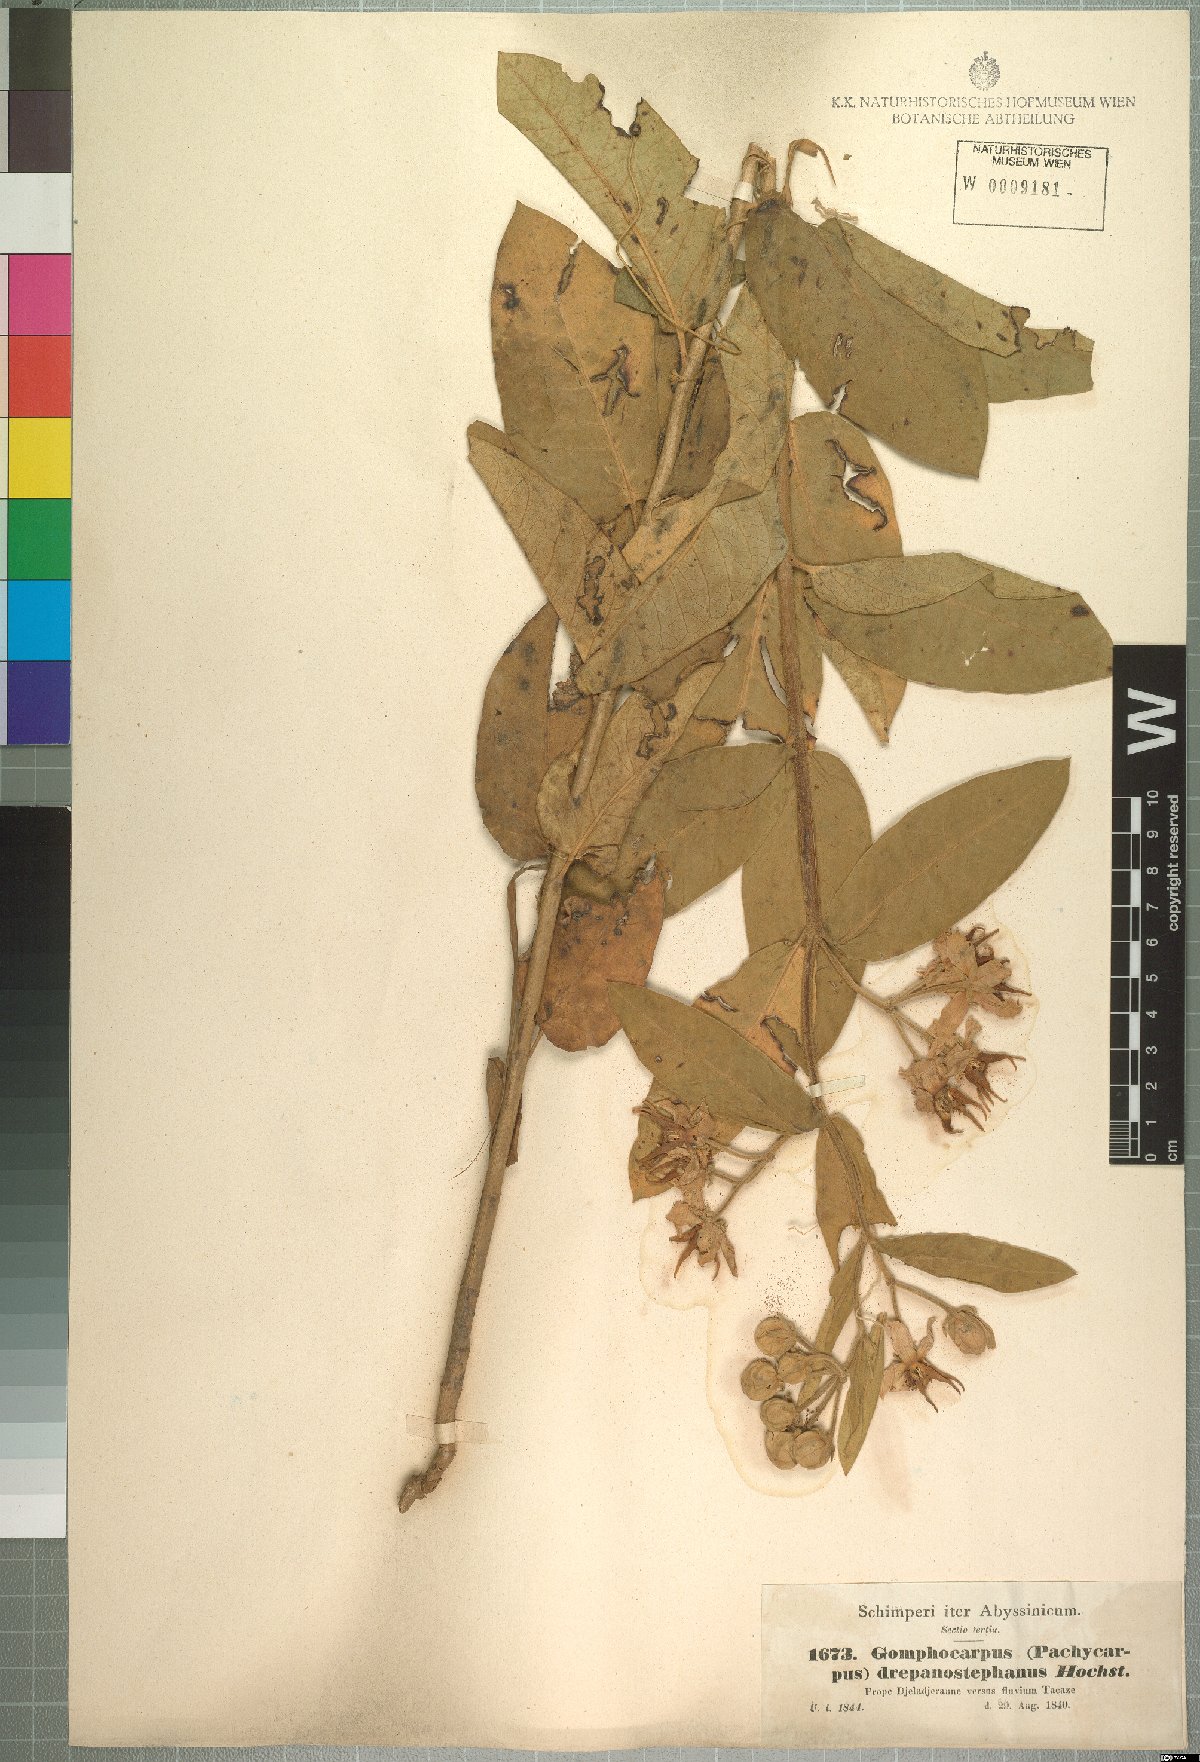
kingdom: Plantae
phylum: Tracheophyta
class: Magnoliopsida
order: Gentianales
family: Apocynaceae
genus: Pachycarpus
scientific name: Pachycarpus robustus
